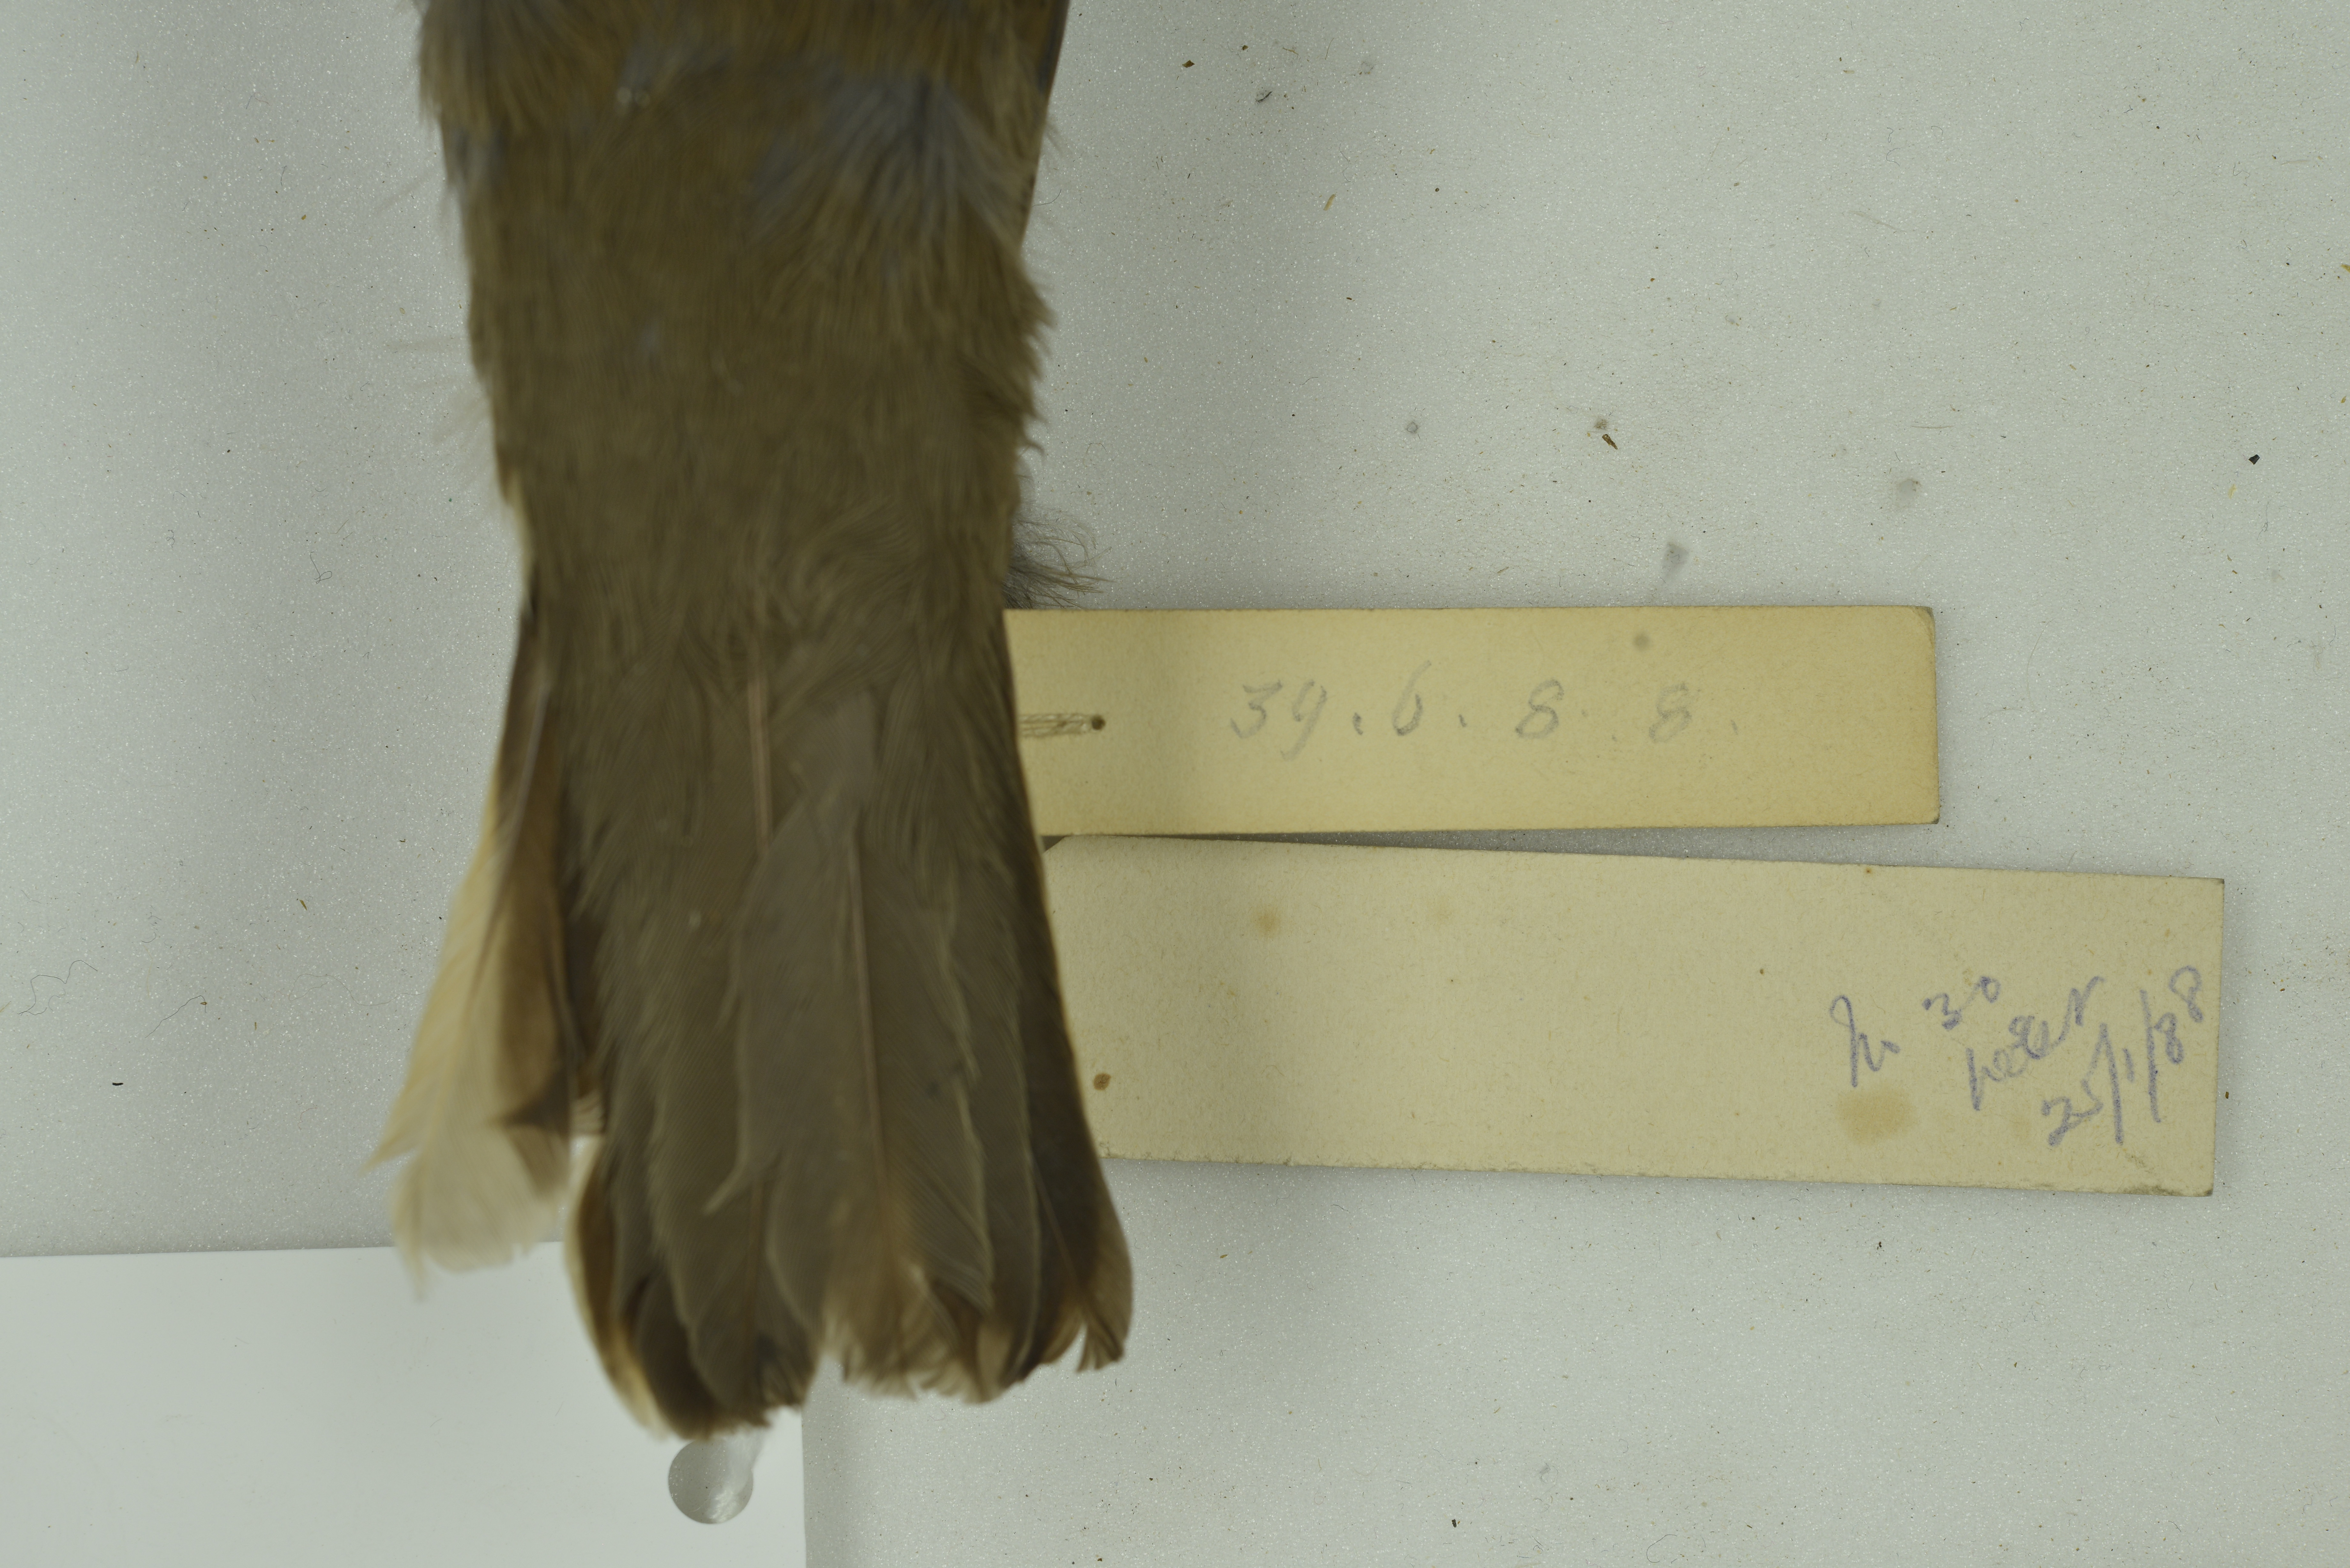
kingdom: Animalia
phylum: Chordata
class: Aves
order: Passeriformes
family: Furnariidae
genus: Cinclodes
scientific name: Cinclodes fuscus
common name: Buff-winged cinclodes
